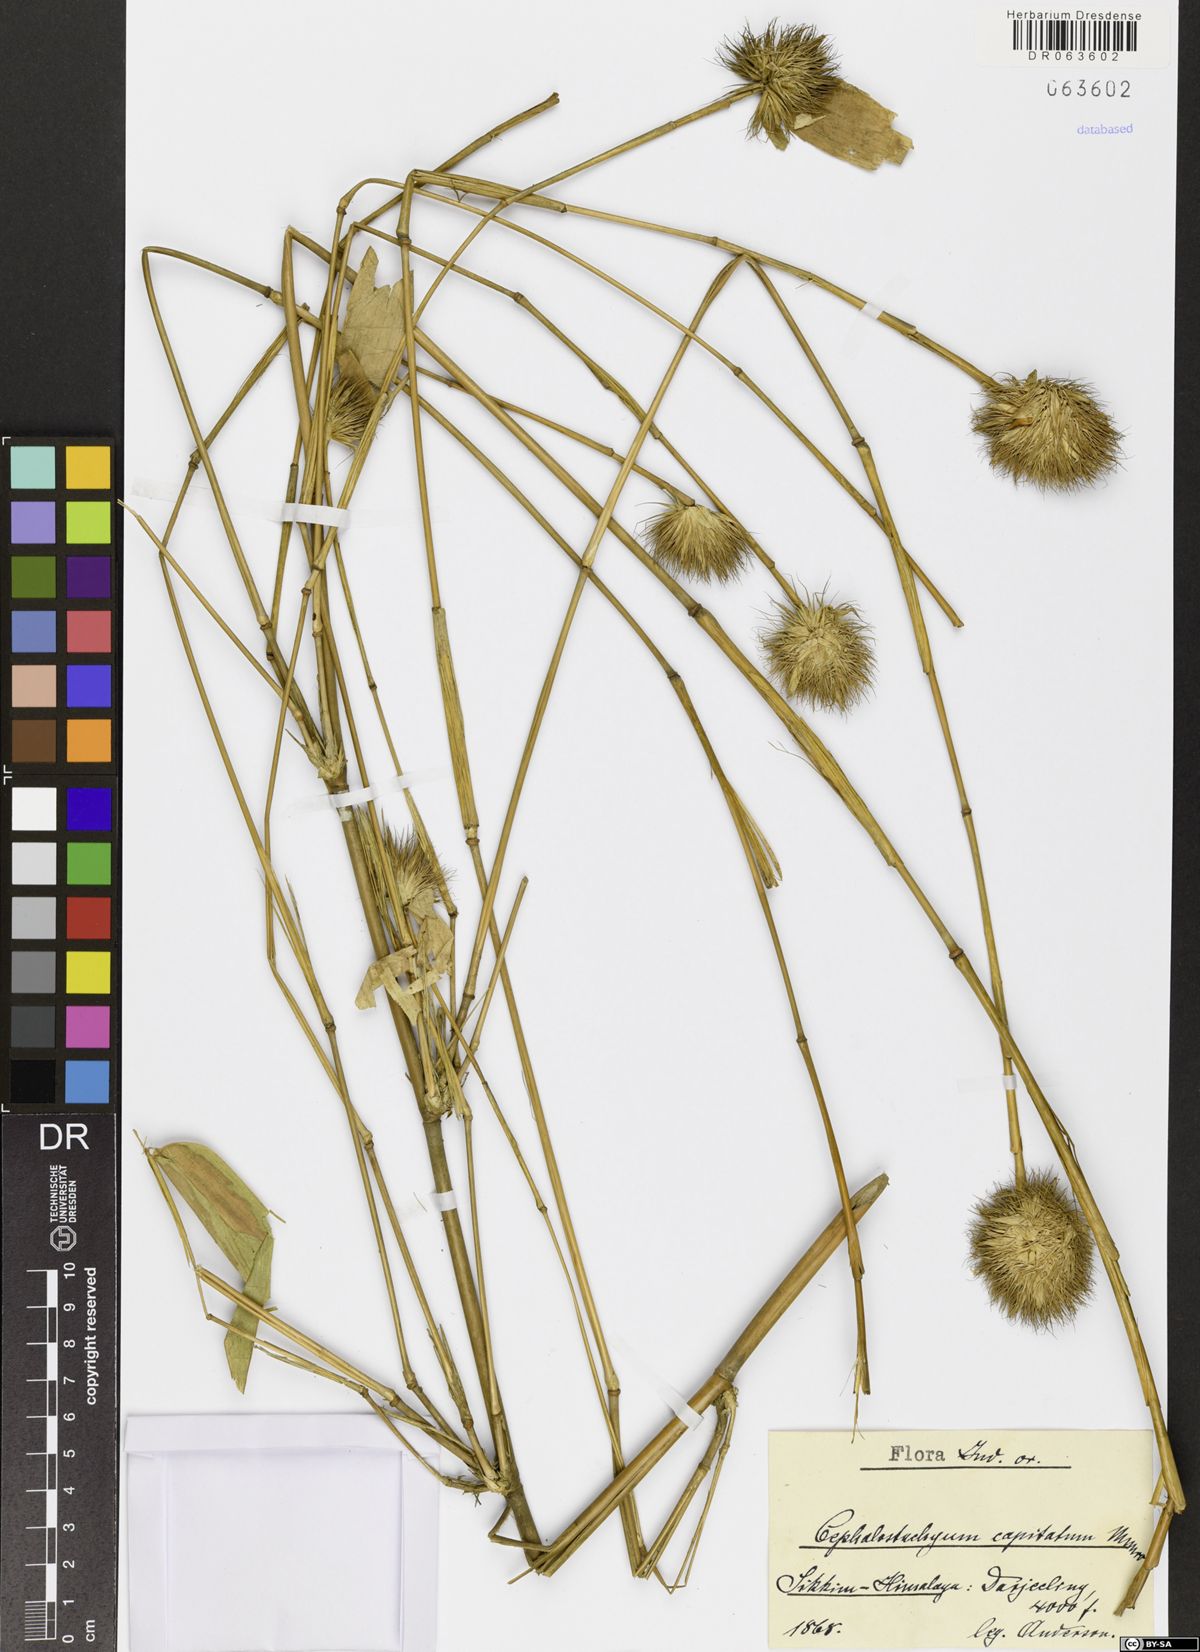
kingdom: Plantae
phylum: Tracheophyta
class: Liliopsida
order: Poales
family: Poaceae
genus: Cephalostachyum
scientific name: Cephalostachyum capitatum
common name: Hollow bamboo
